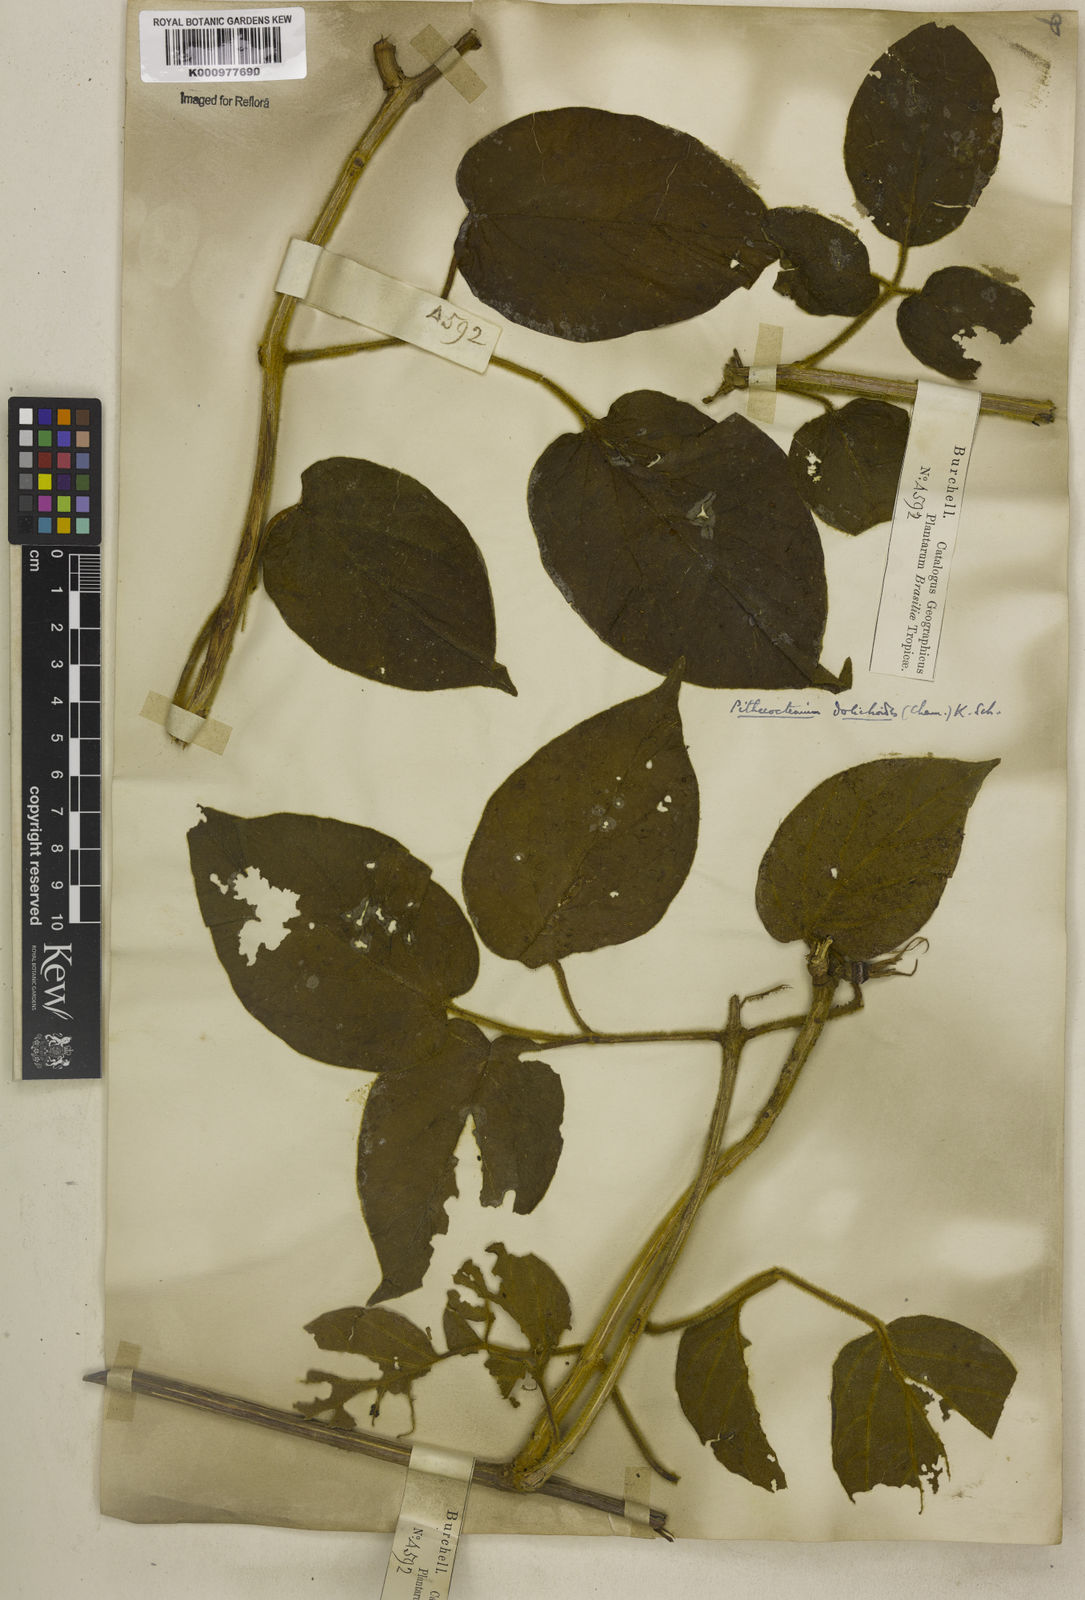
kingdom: Plantae
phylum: Tracheophyta
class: Magnoliopsida
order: Lamiales
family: Bignoniaceae
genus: Amphilophium
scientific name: Amphilophium dolichoides
